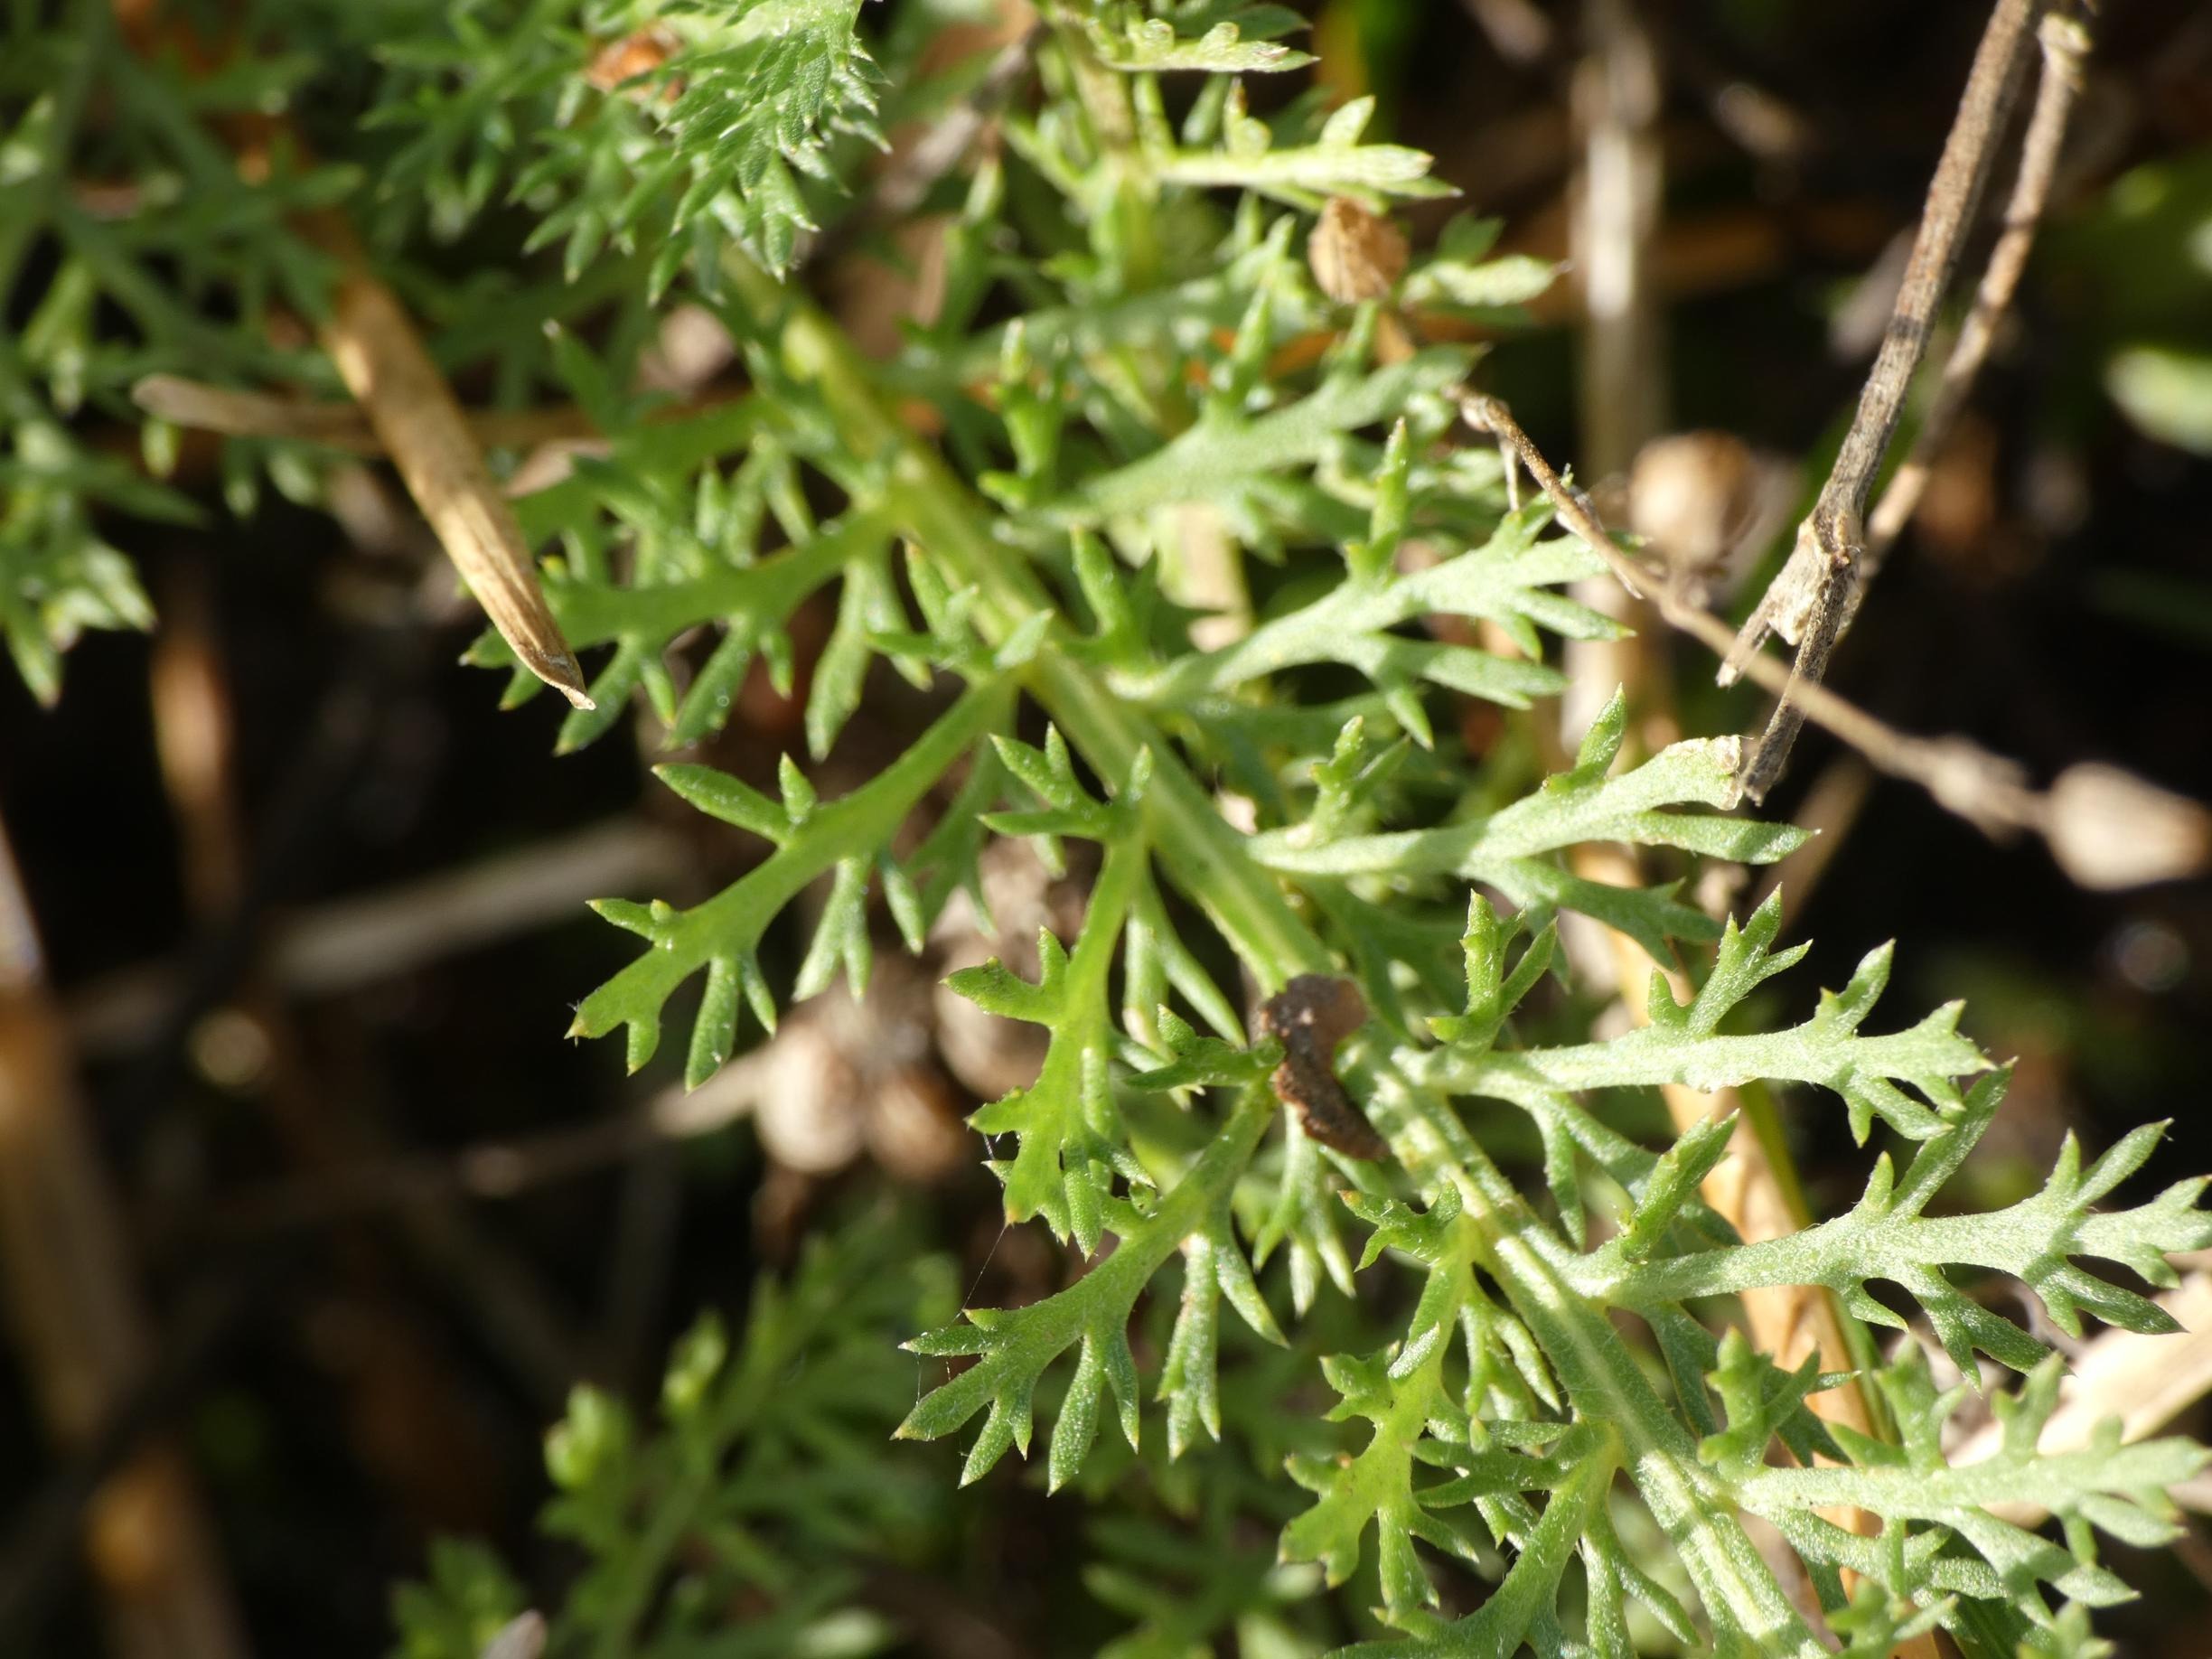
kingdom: Plantae
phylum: Tracheophyta
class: Magnoliopsida
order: Asterales
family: Asteraceae
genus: Achillea
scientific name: Achillea millefolium
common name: Almindelig røllike
